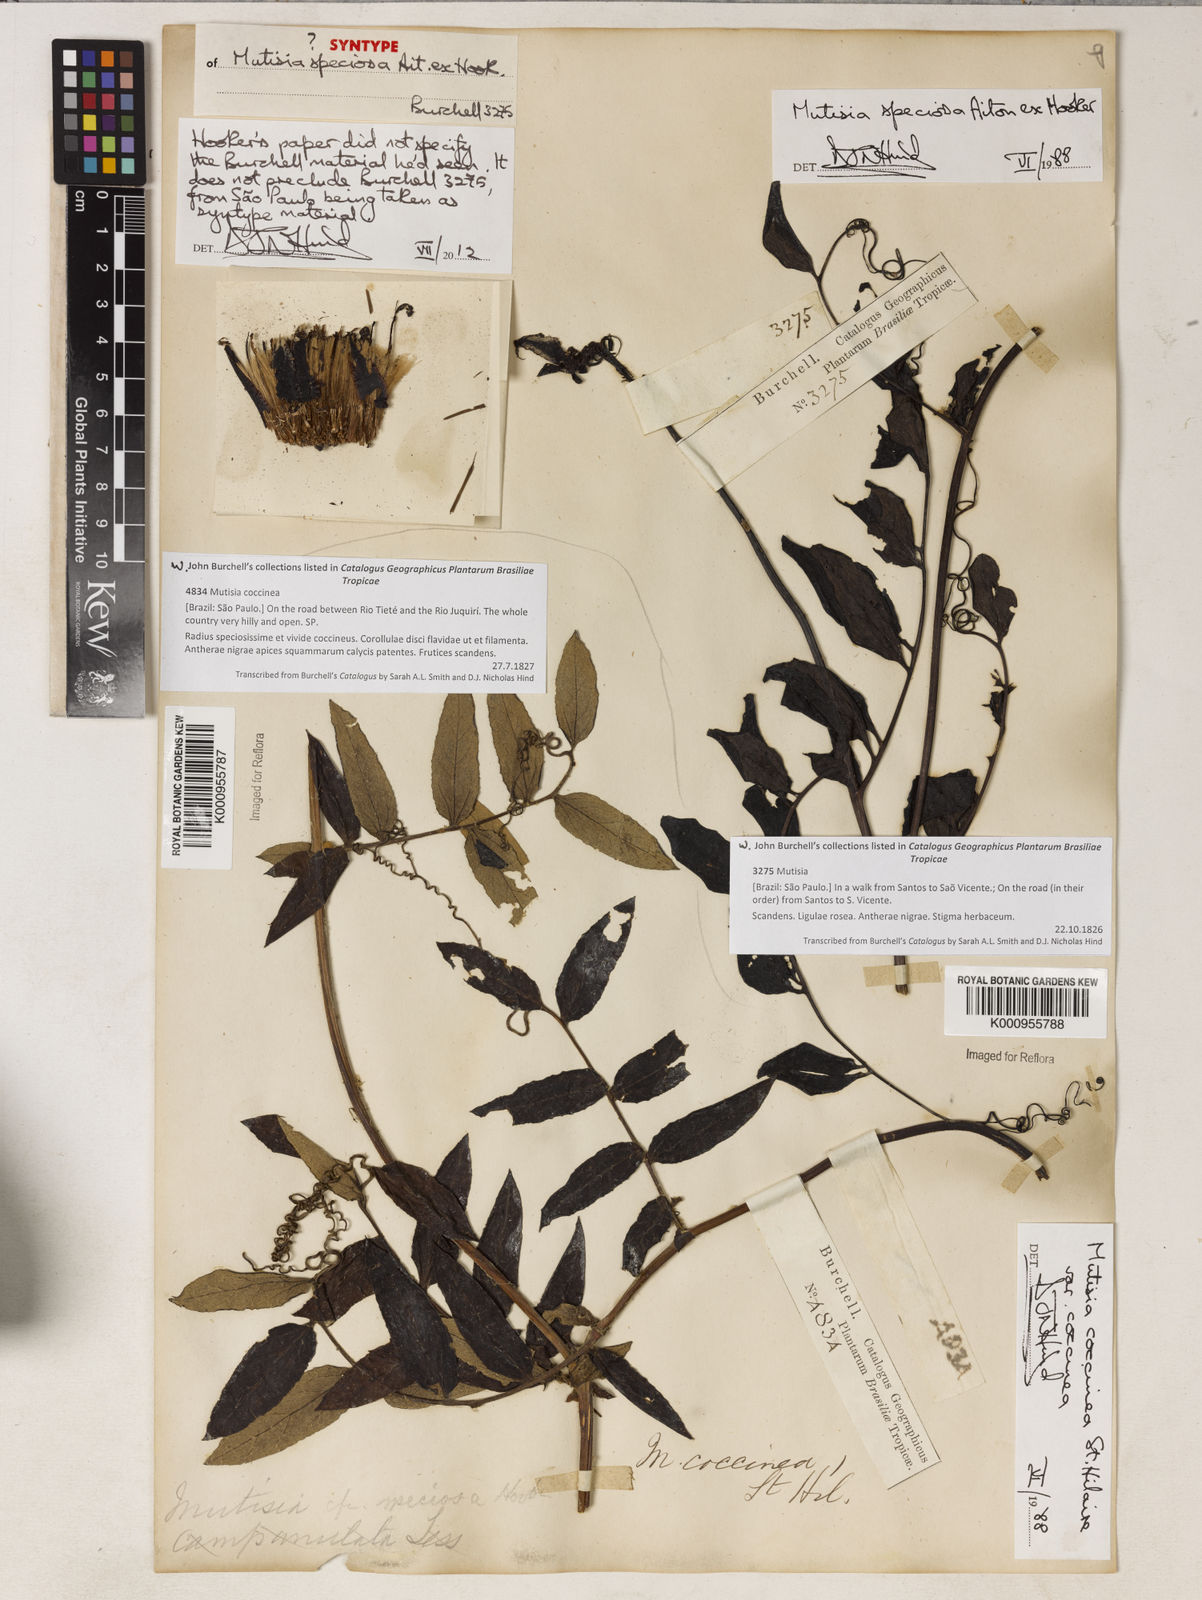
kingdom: Plantae
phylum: Tracheophyta
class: Magnoliopsida
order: Asterales
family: Asteraceae
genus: Mutisia
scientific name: Mutisia speciosa
